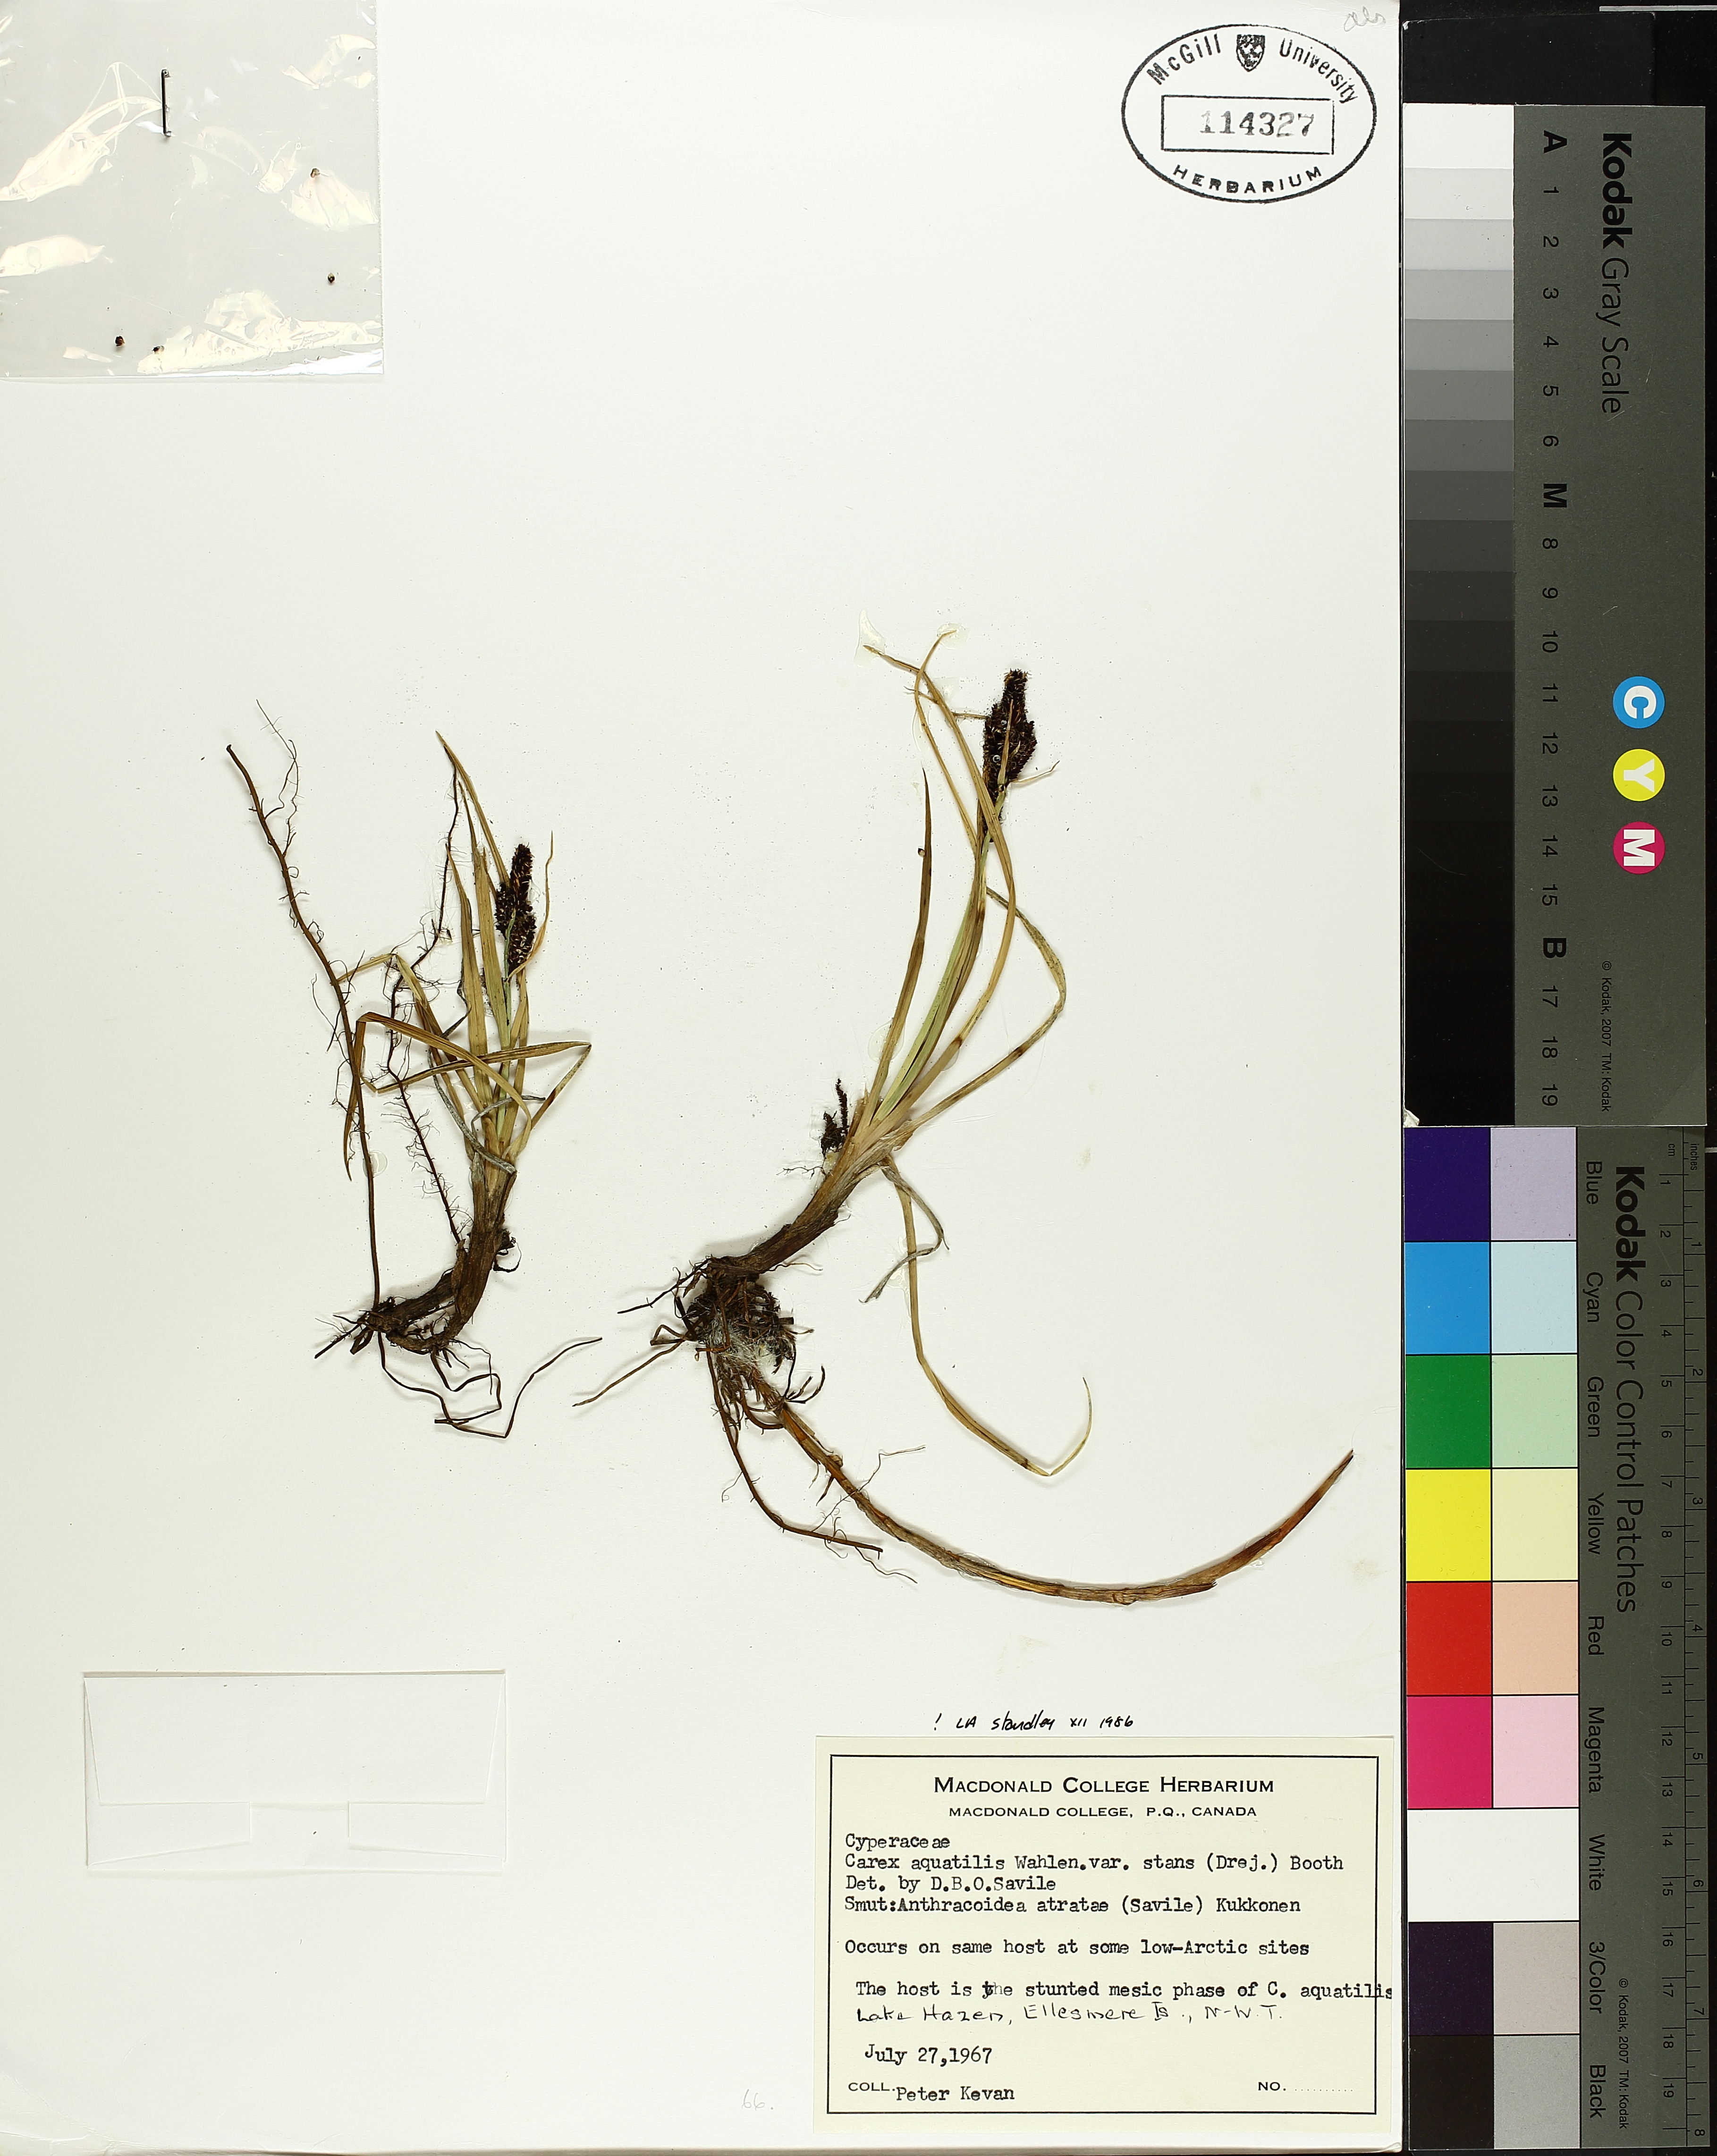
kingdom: Plantae
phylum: Tracheophyta
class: Liliopsida
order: Poales
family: Cyperaceae
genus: Carex
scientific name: Carex aquatilis
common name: Water sedge
